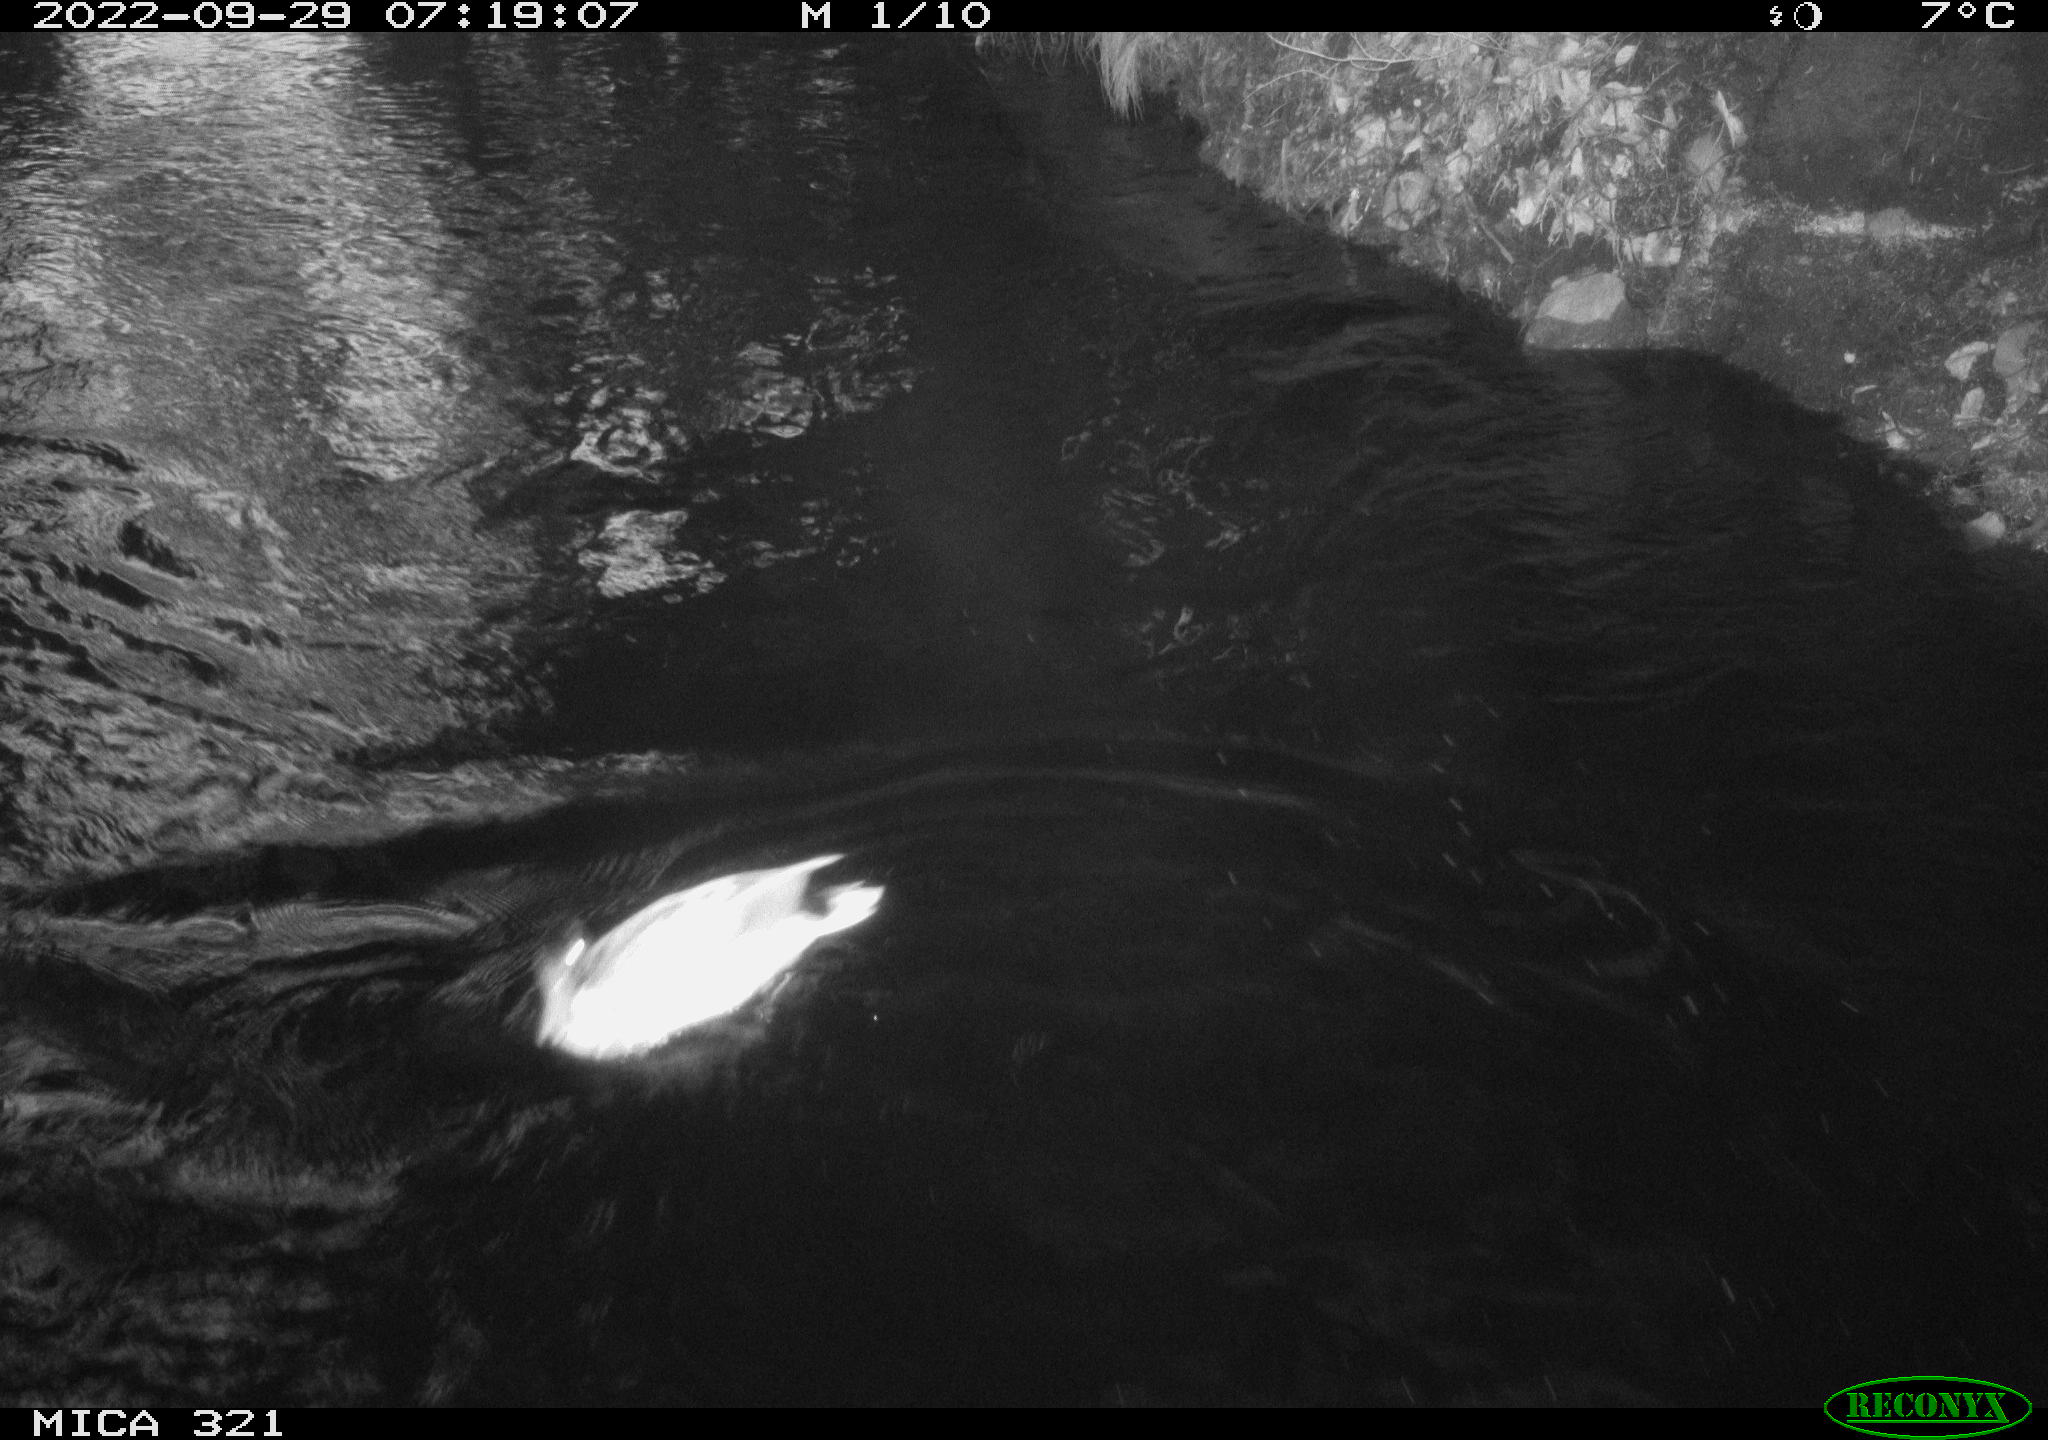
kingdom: Animalia
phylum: Chordata
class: Aves
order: Anseriformes
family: Anatidae
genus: Anas
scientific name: Anas
